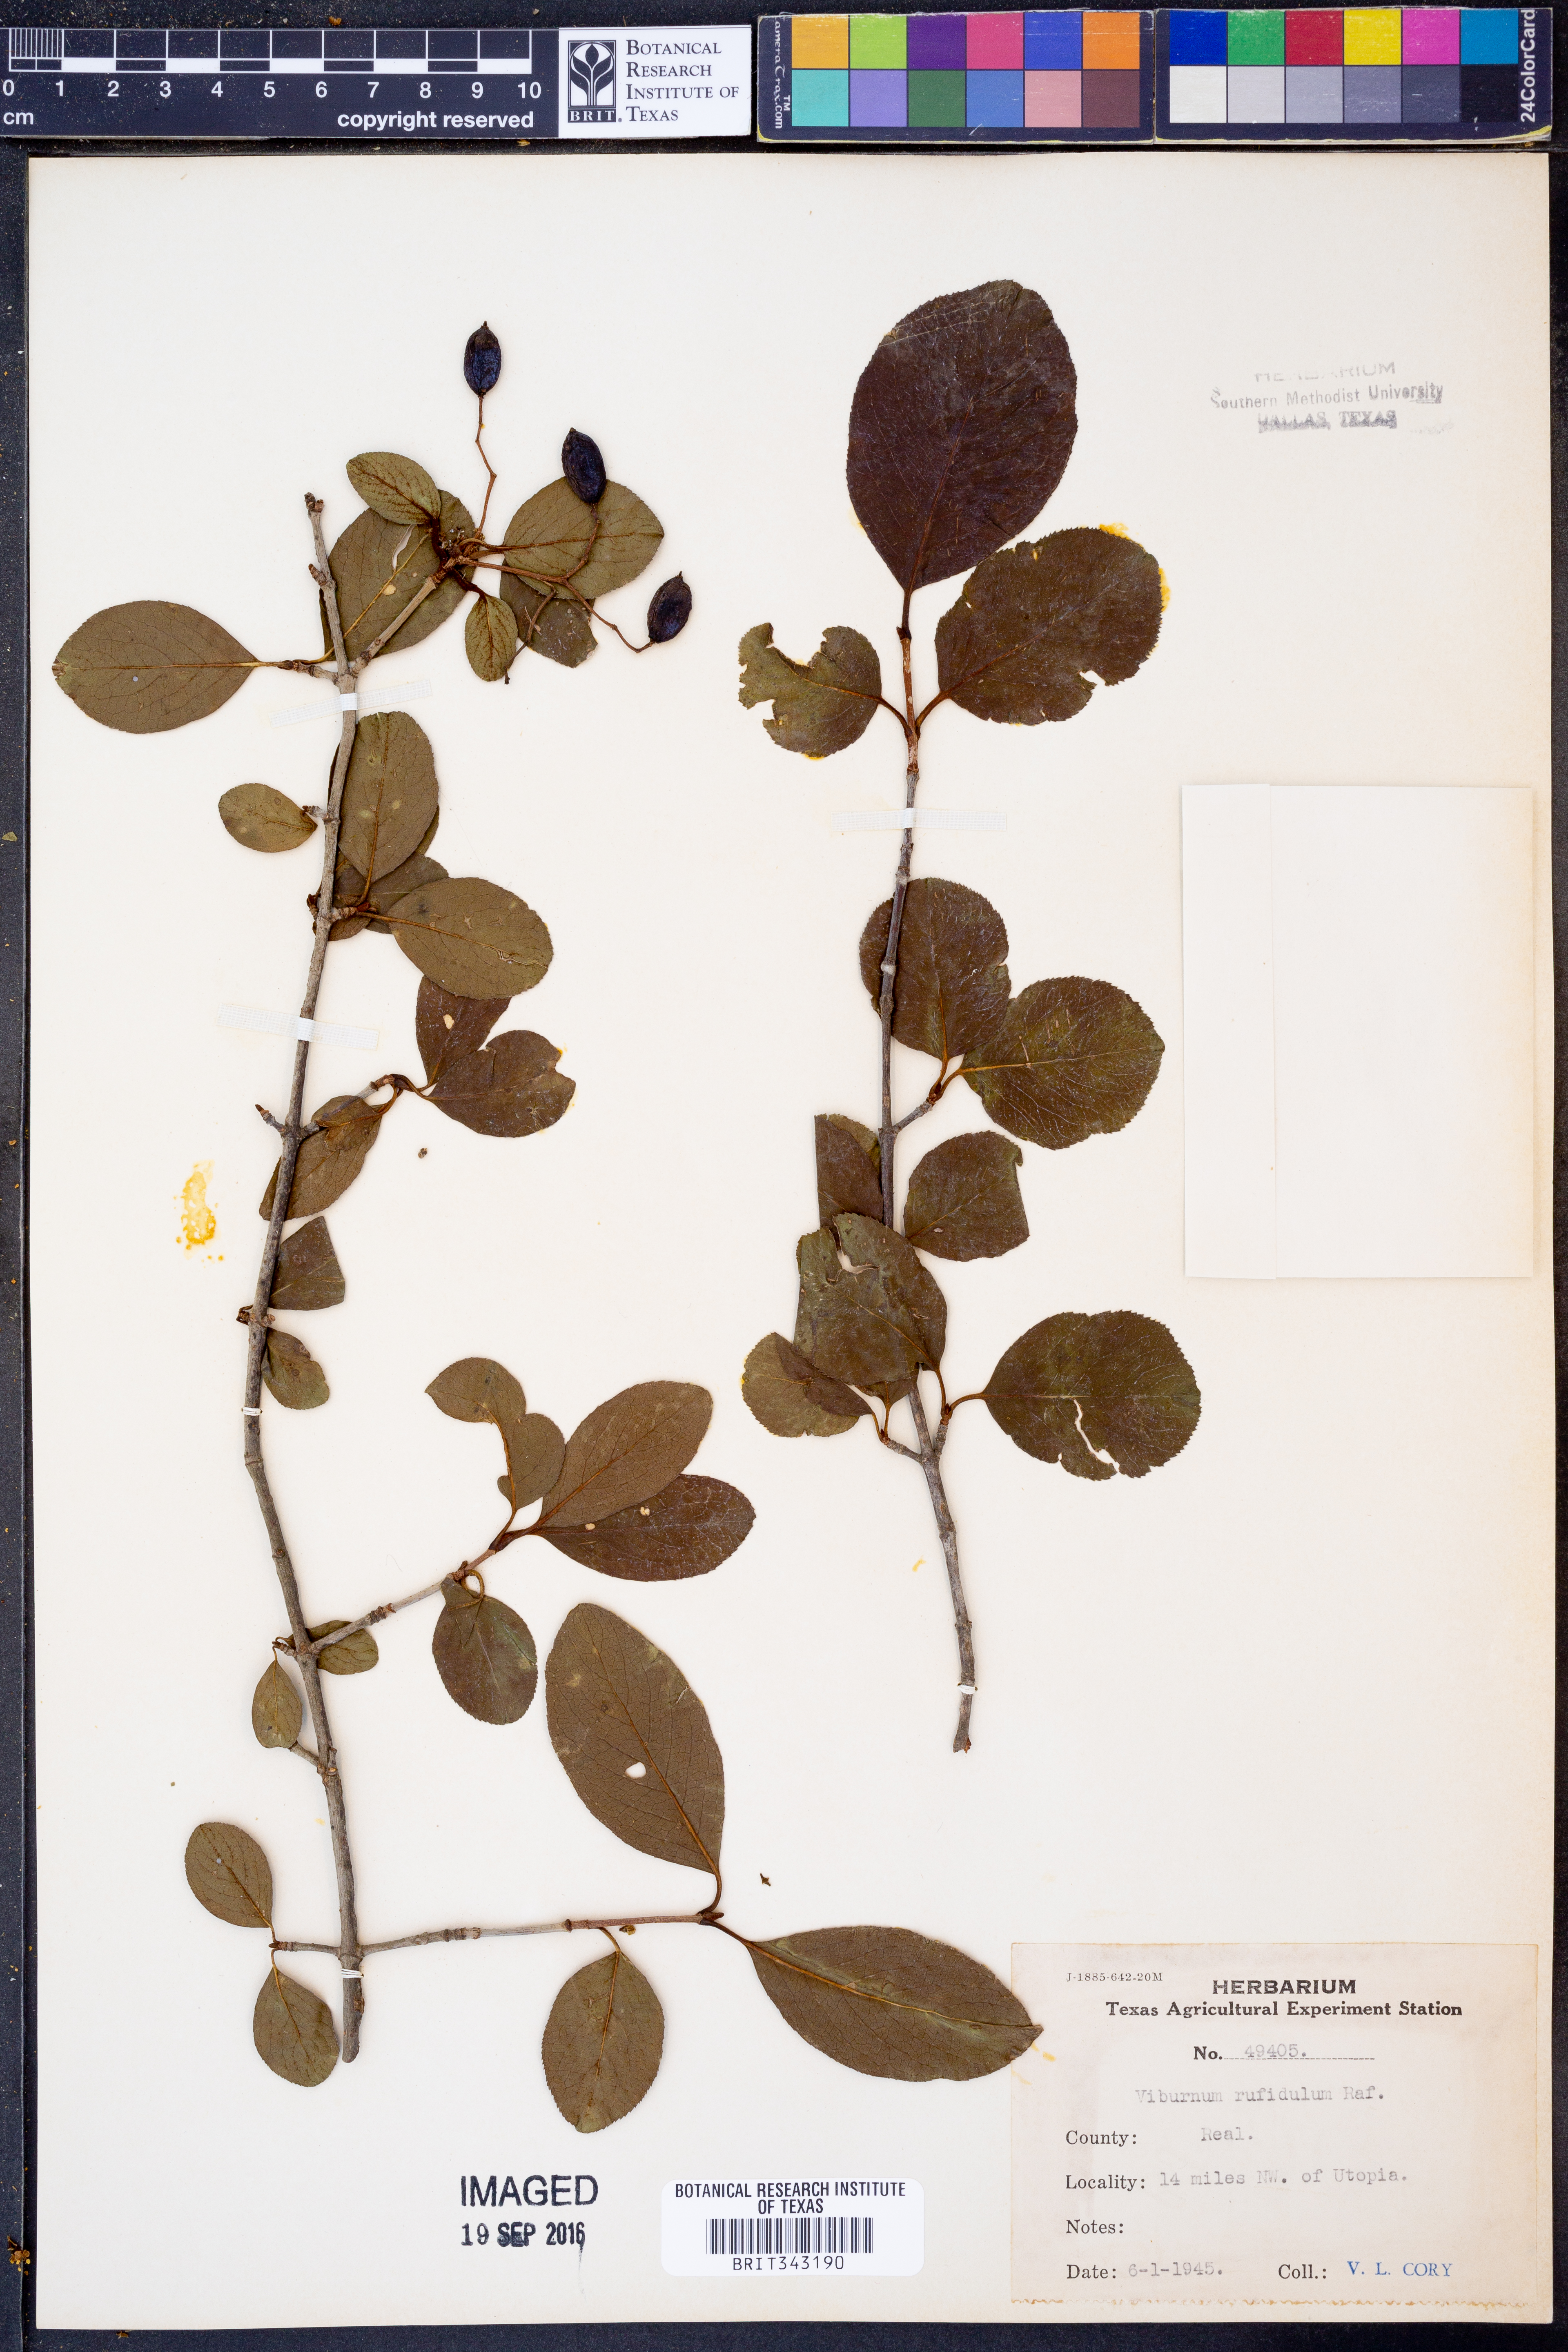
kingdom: Plantae
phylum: Tracheophyta
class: Magnoliopsida
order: Dipsacales
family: Viburnaceae
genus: Viburnum
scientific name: Viburnum rufidulum
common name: Blue haw
